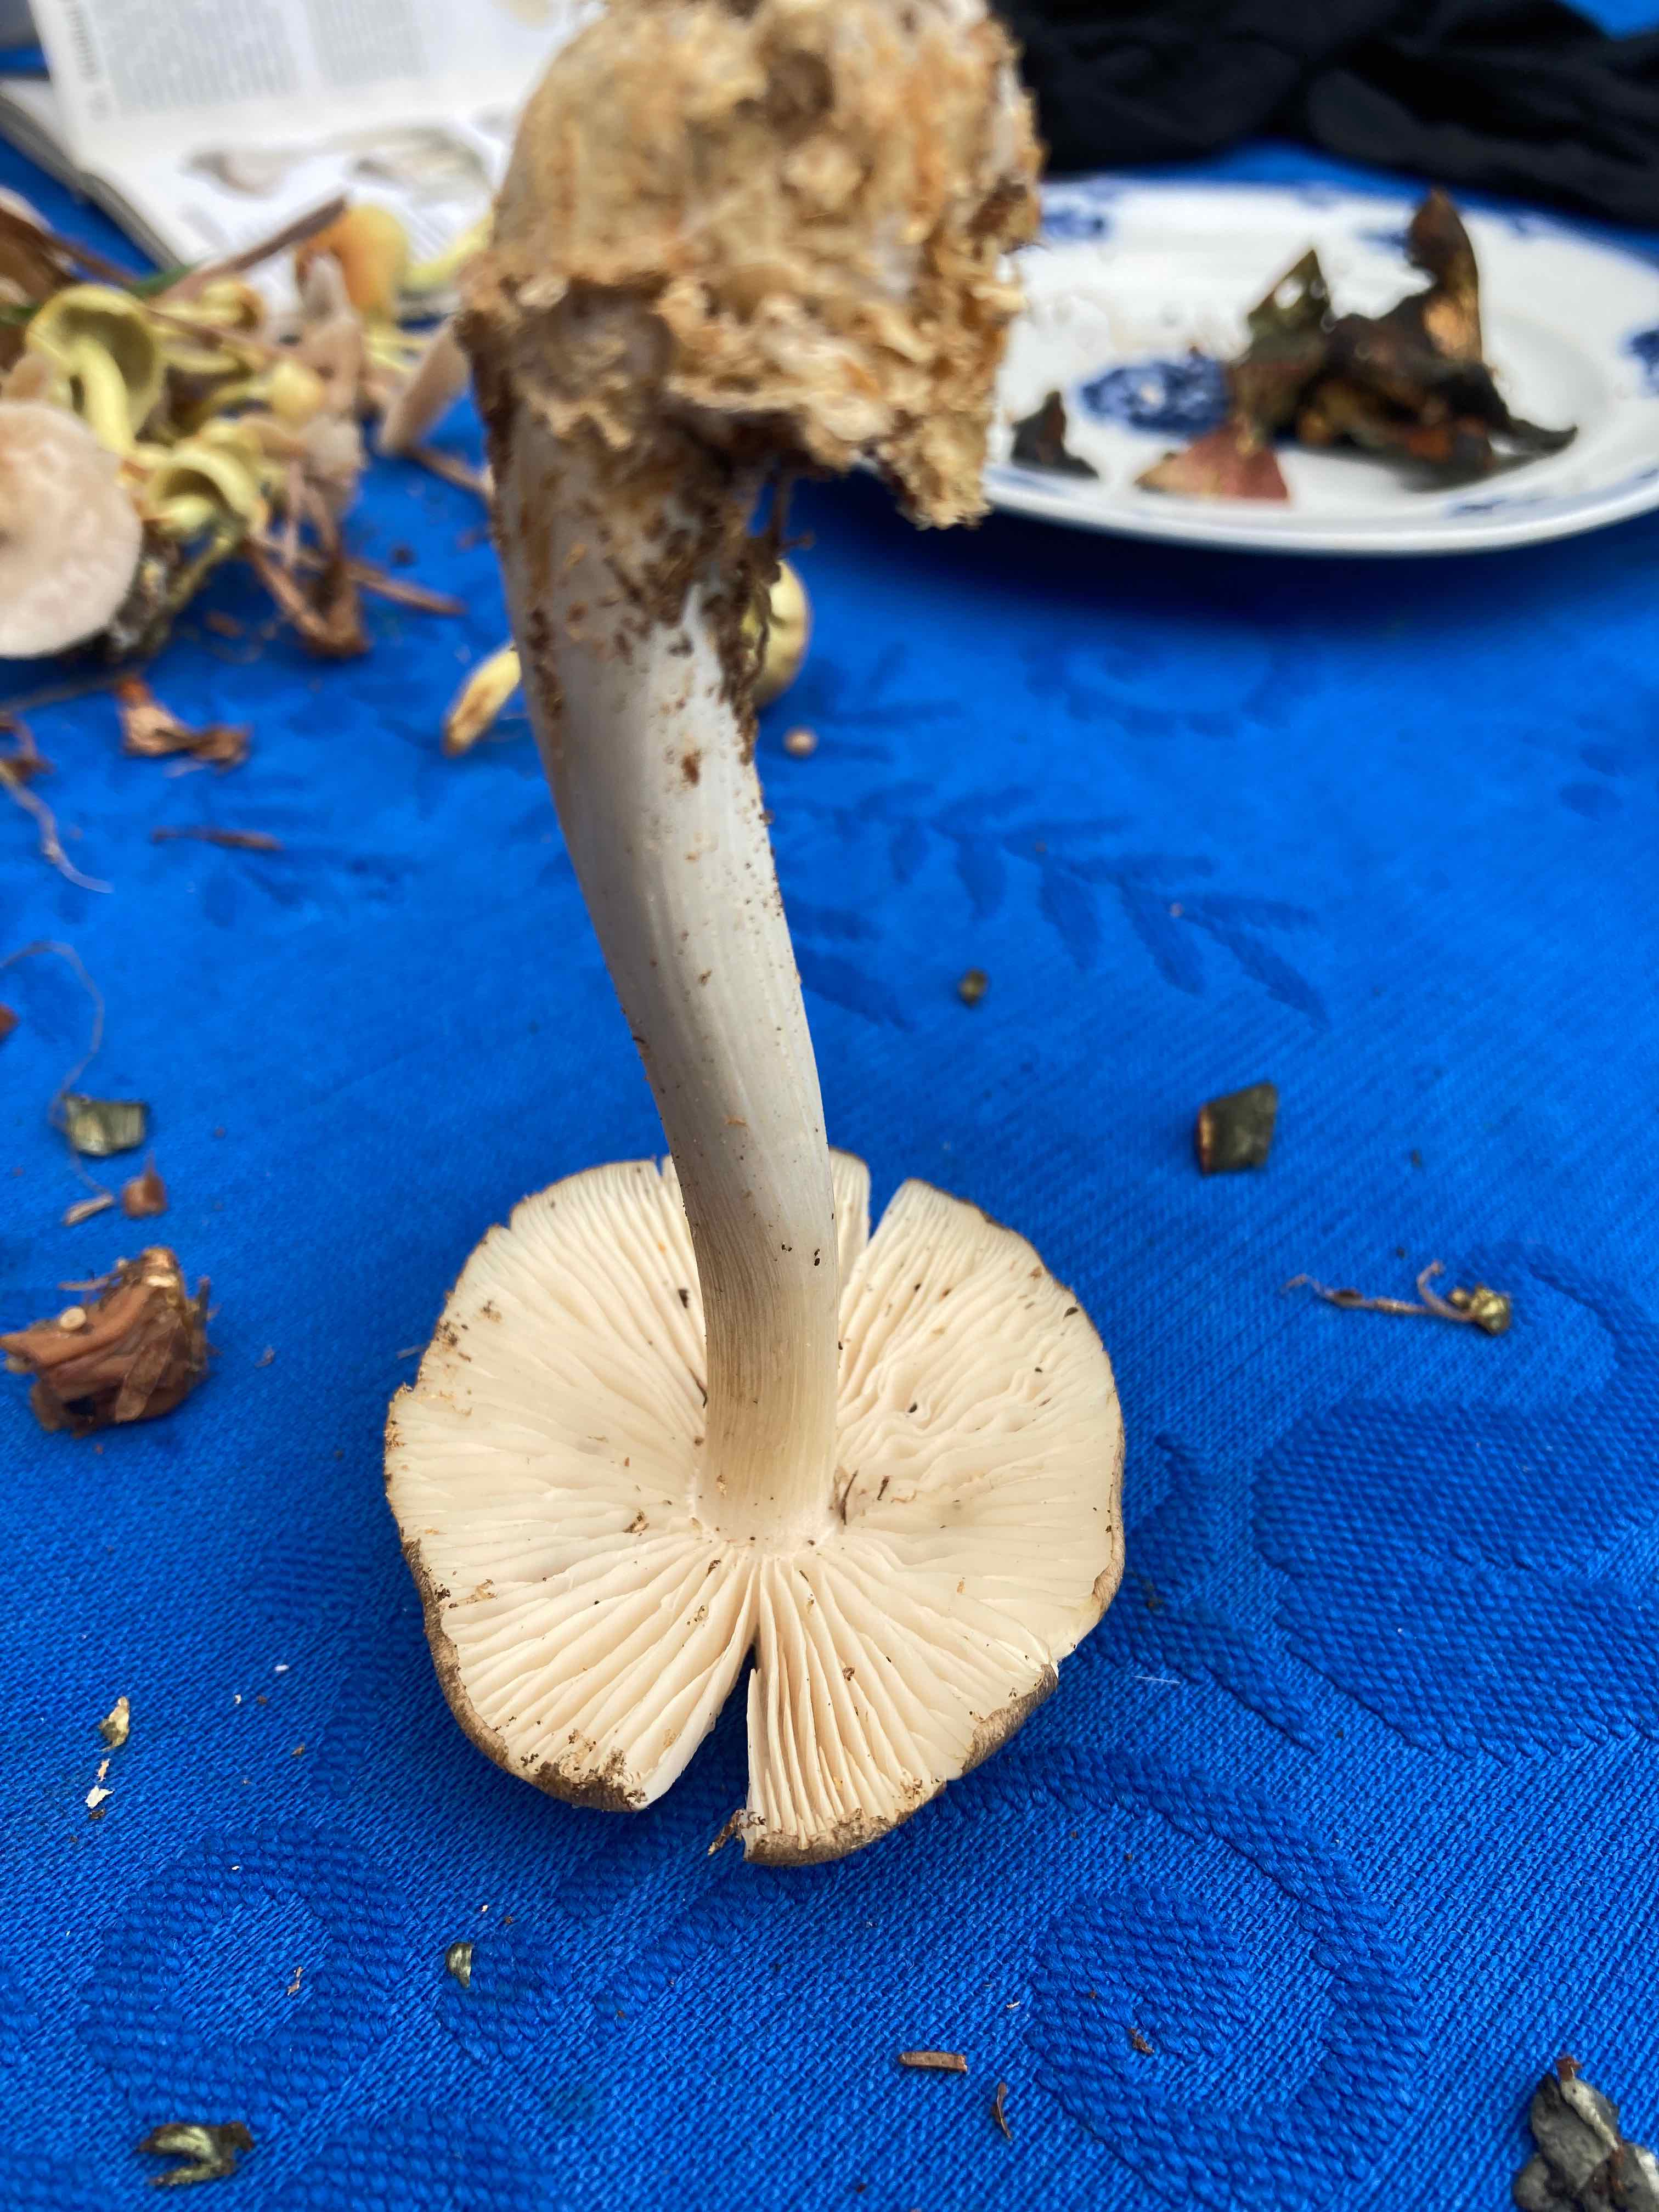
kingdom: Fungi
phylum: Basidiomycota
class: Agaricomycetes
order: Agaricales
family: Tricholomataceae
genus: Megacollybia
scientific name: Megacollybia platyphylla
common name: bredbladet væbnerhat
